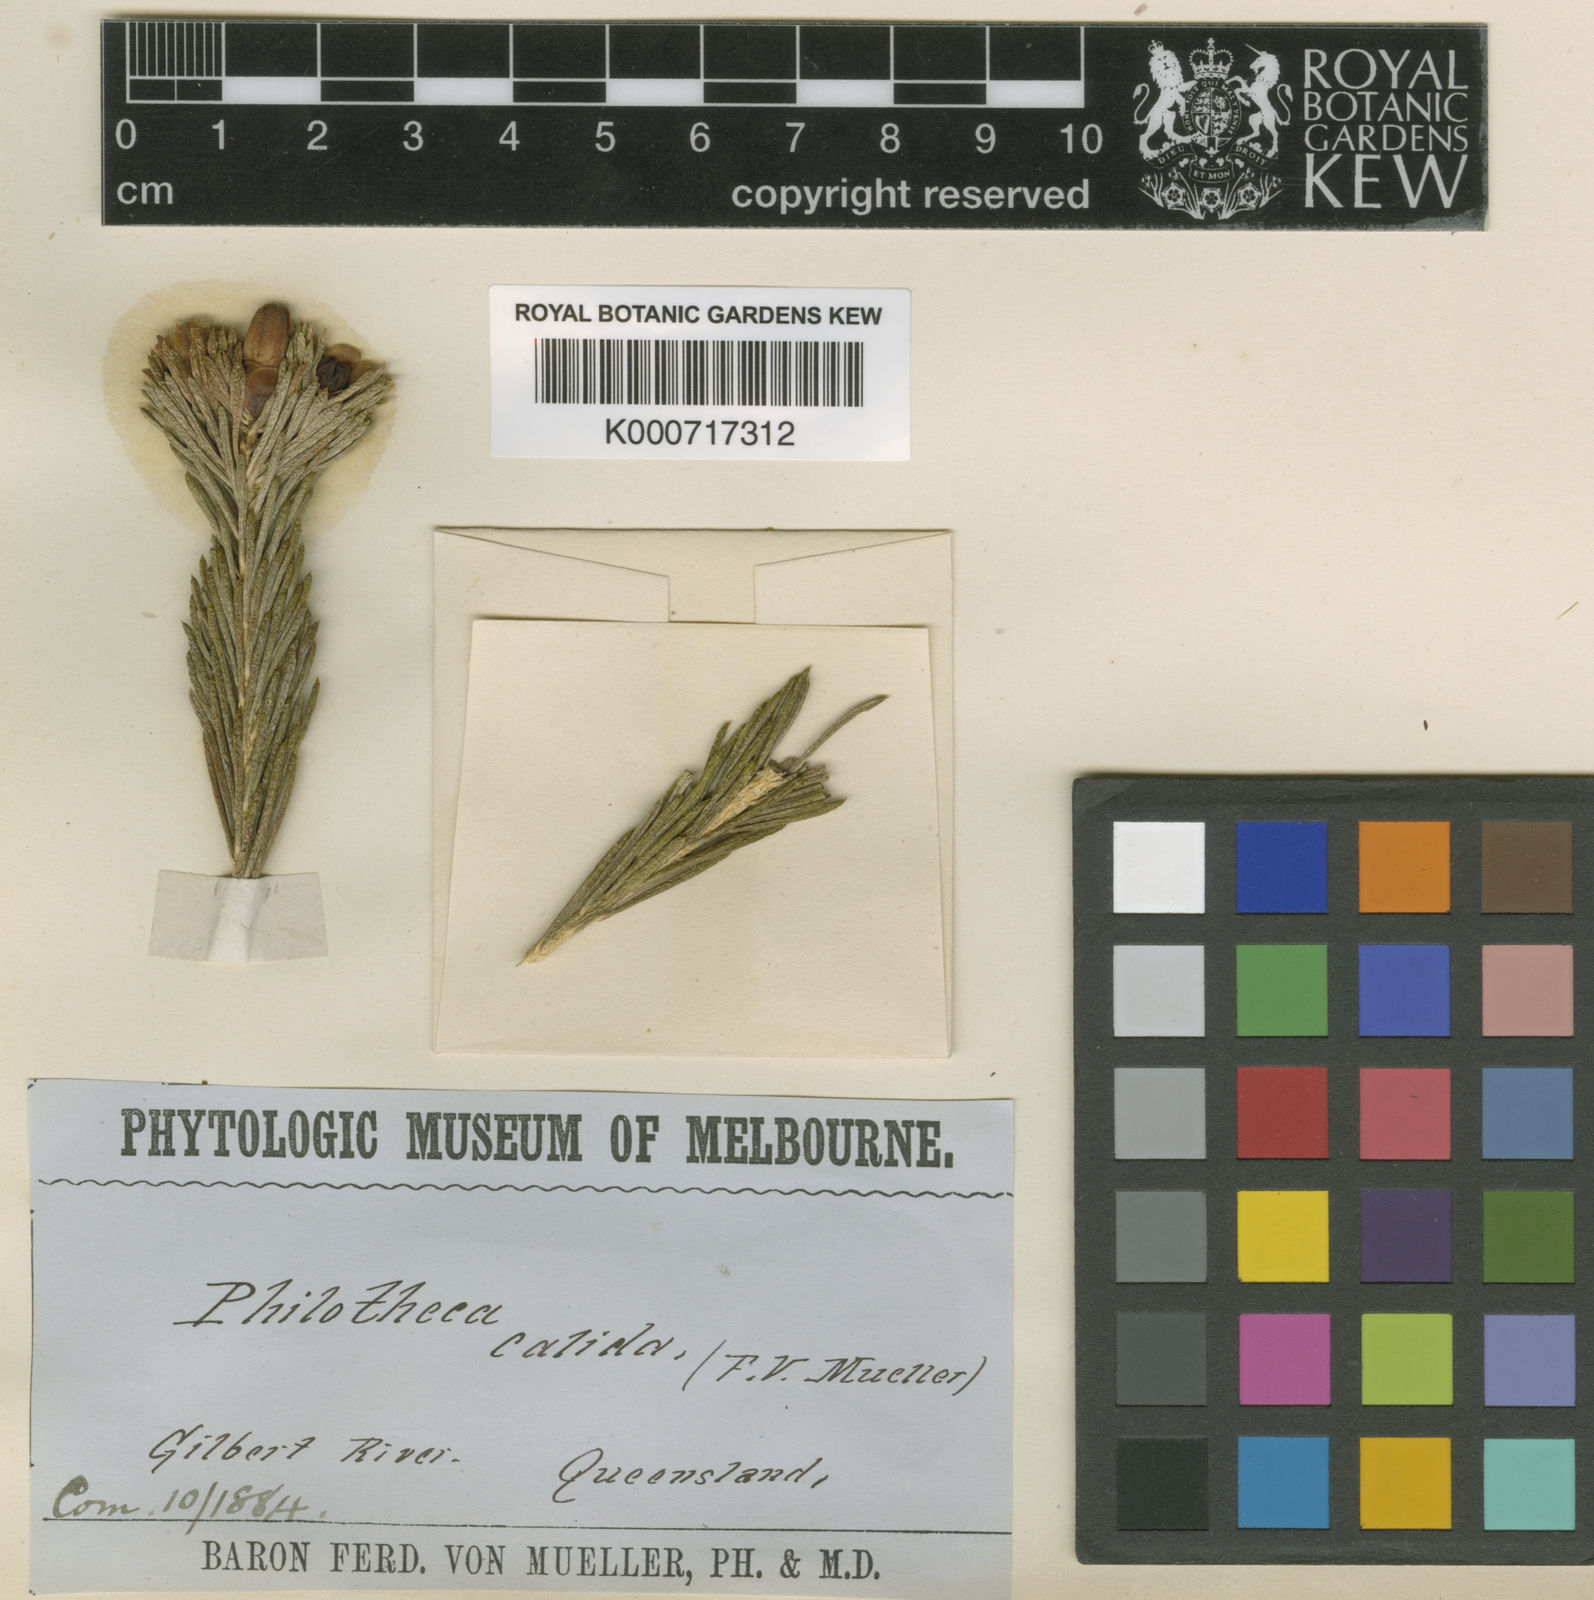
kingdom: Plantae
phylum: Tracheophyta
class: Magnoliopsida
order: Sapindales
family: Rutaceae
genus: Drummondita
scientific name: Drummondita calida
